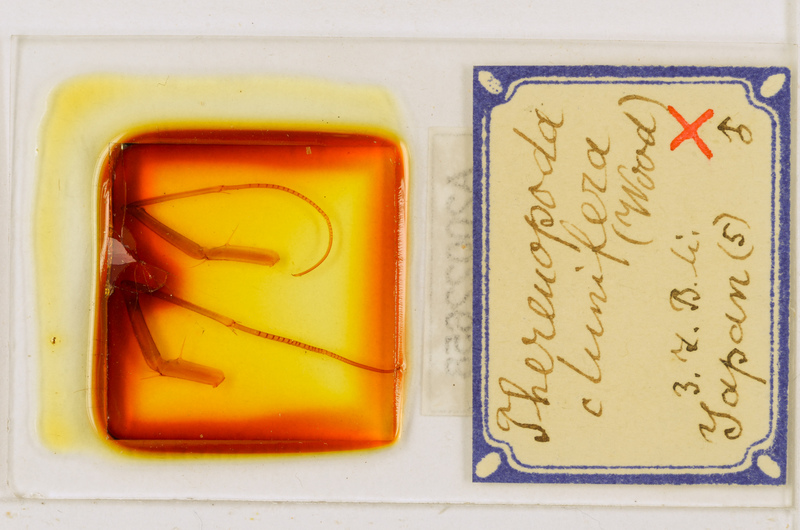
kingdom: Animalia
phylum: Arthropoda
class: Chilopoda
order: Scutigeromorpha
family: Scutigeridae
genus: Thereuopoda
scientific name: Thereuopoda clunifera
